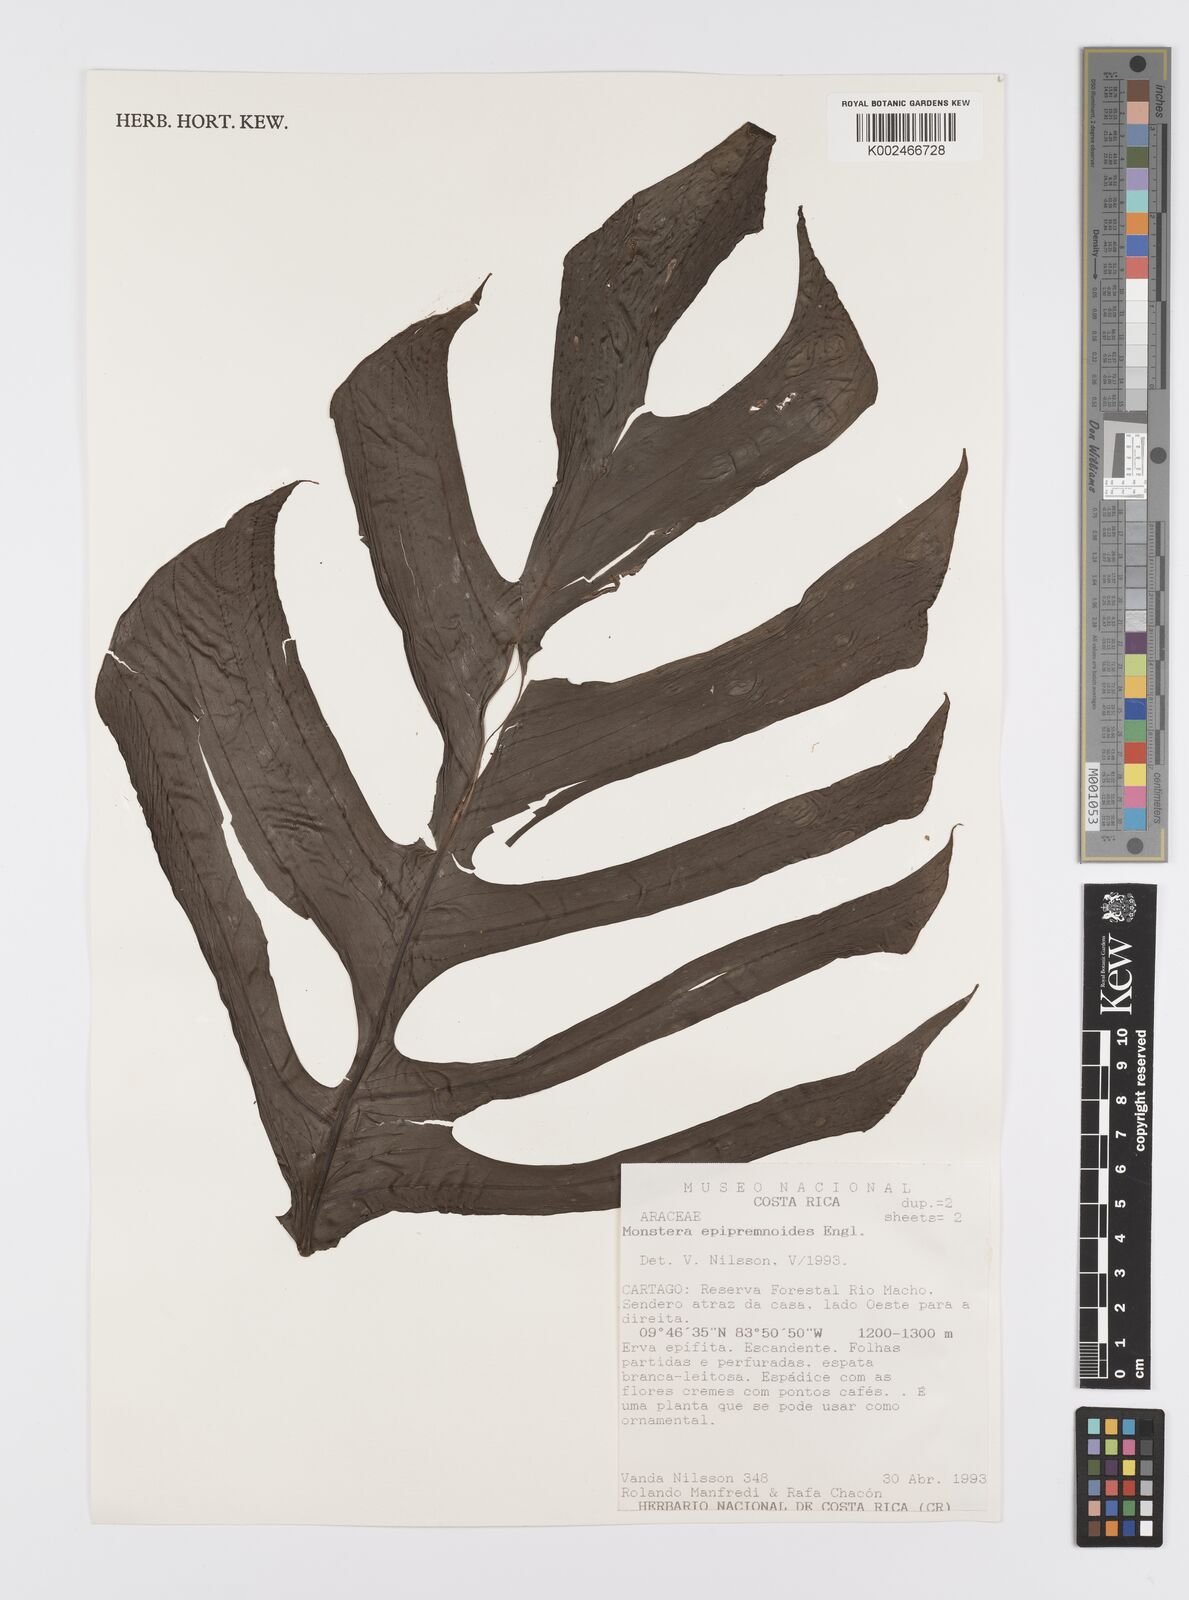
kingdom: Plantae
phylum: Tracheophyta
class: Liliopsida
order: Alismatales
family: Araceae
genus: Monstera
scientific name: Monstera epipremnoides
